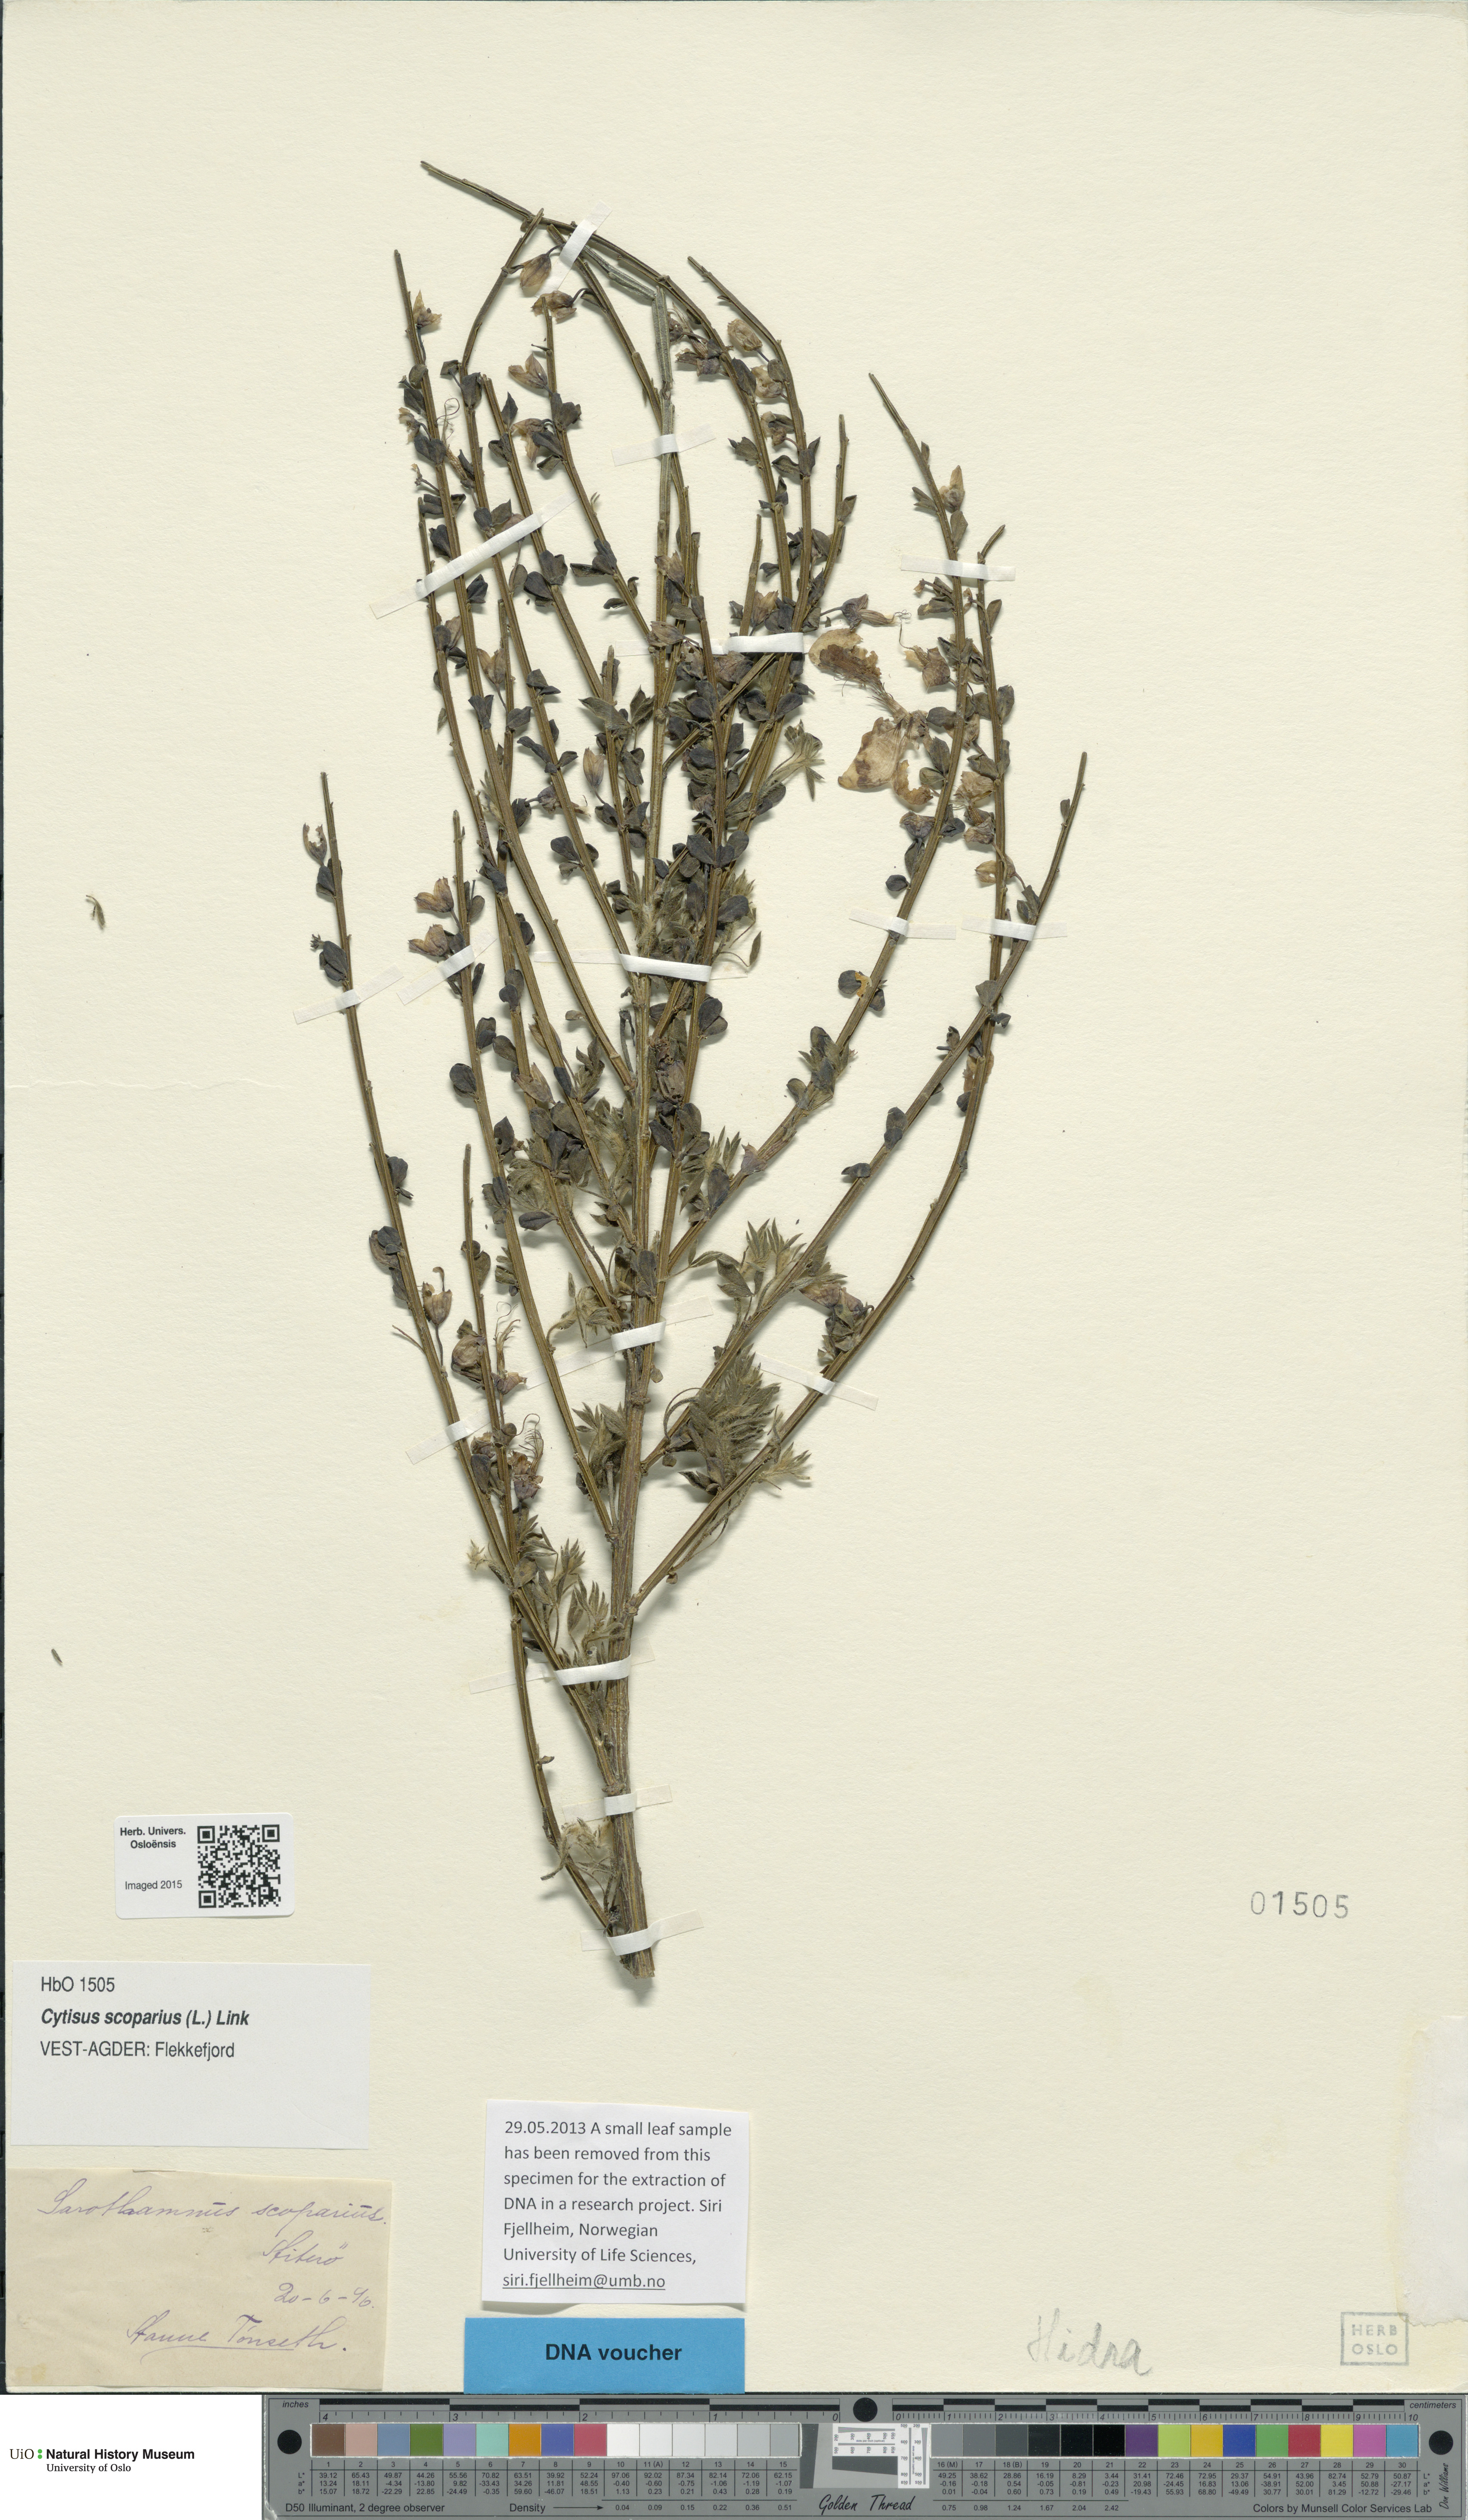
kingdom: Plantae
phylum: Tracheophyta
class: Magnoliopsida
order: Fabales
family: Fabaceae
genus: Cytisus
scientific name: Cytisus scoparius
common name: Scotch broom
